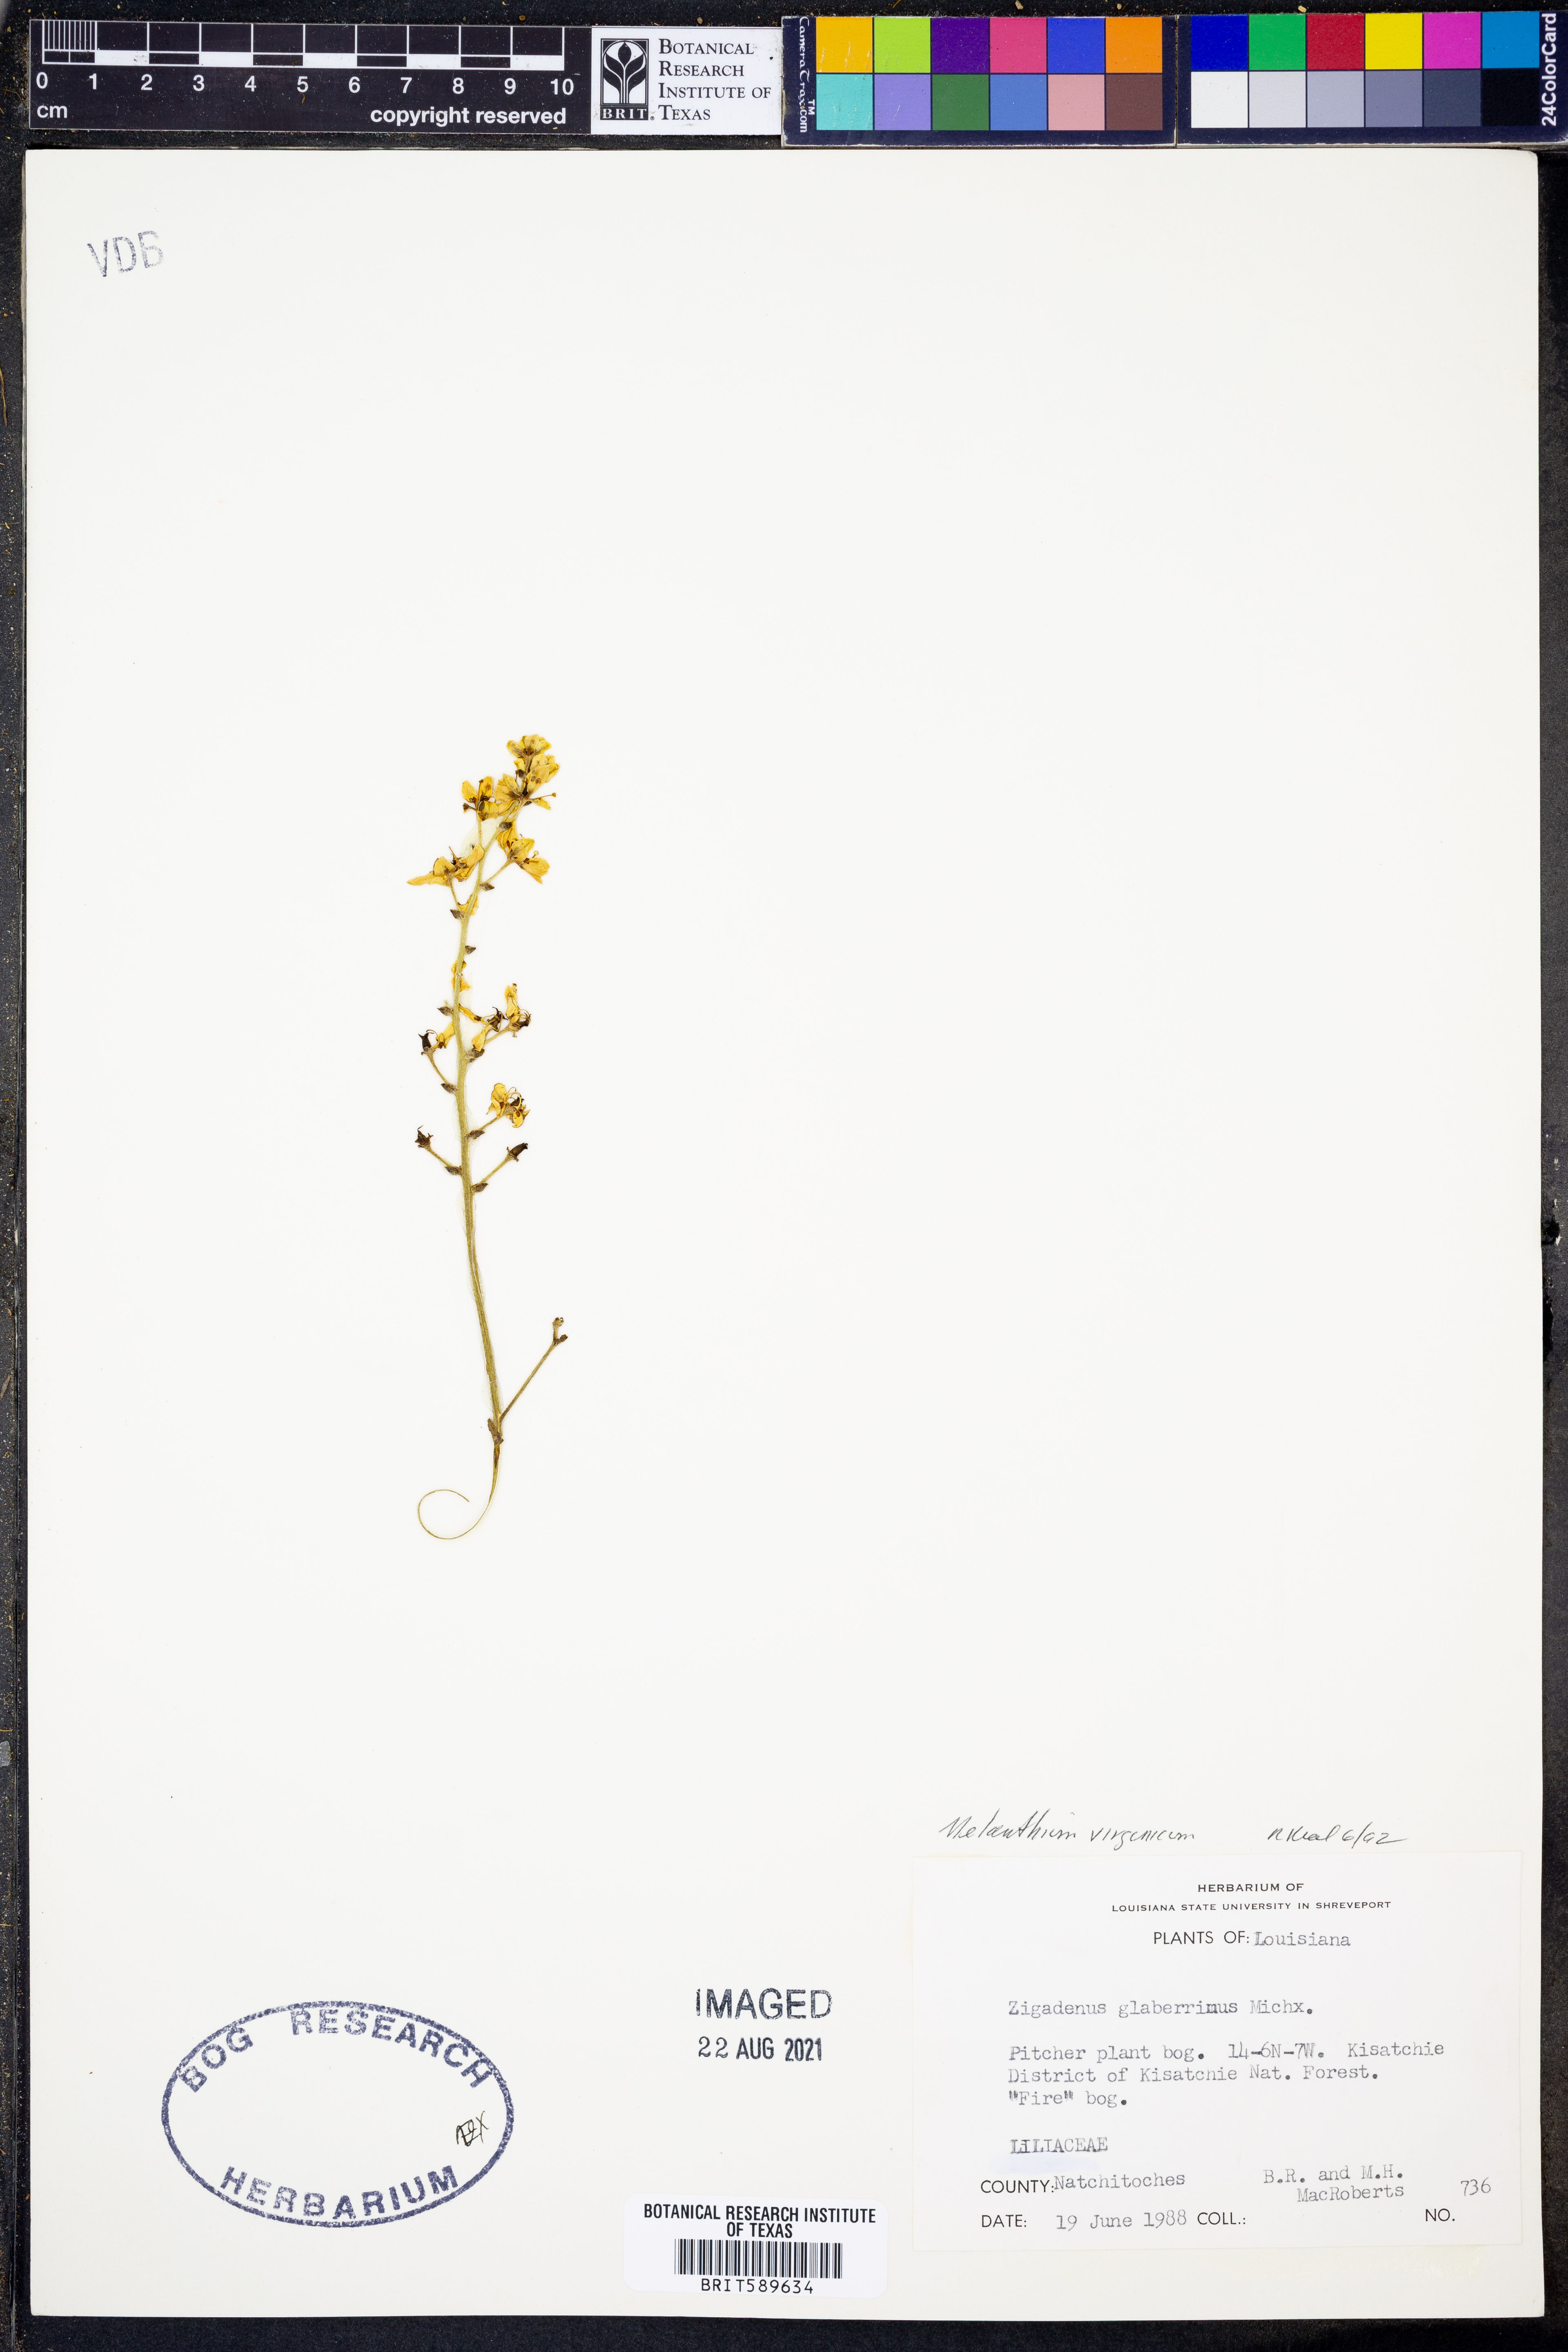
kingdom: Plantae
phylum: Tracheophyta
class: Liliopsida
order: Liliales
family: Melanthiaceae
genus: Melanthium
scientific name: Melanthium virginicum
